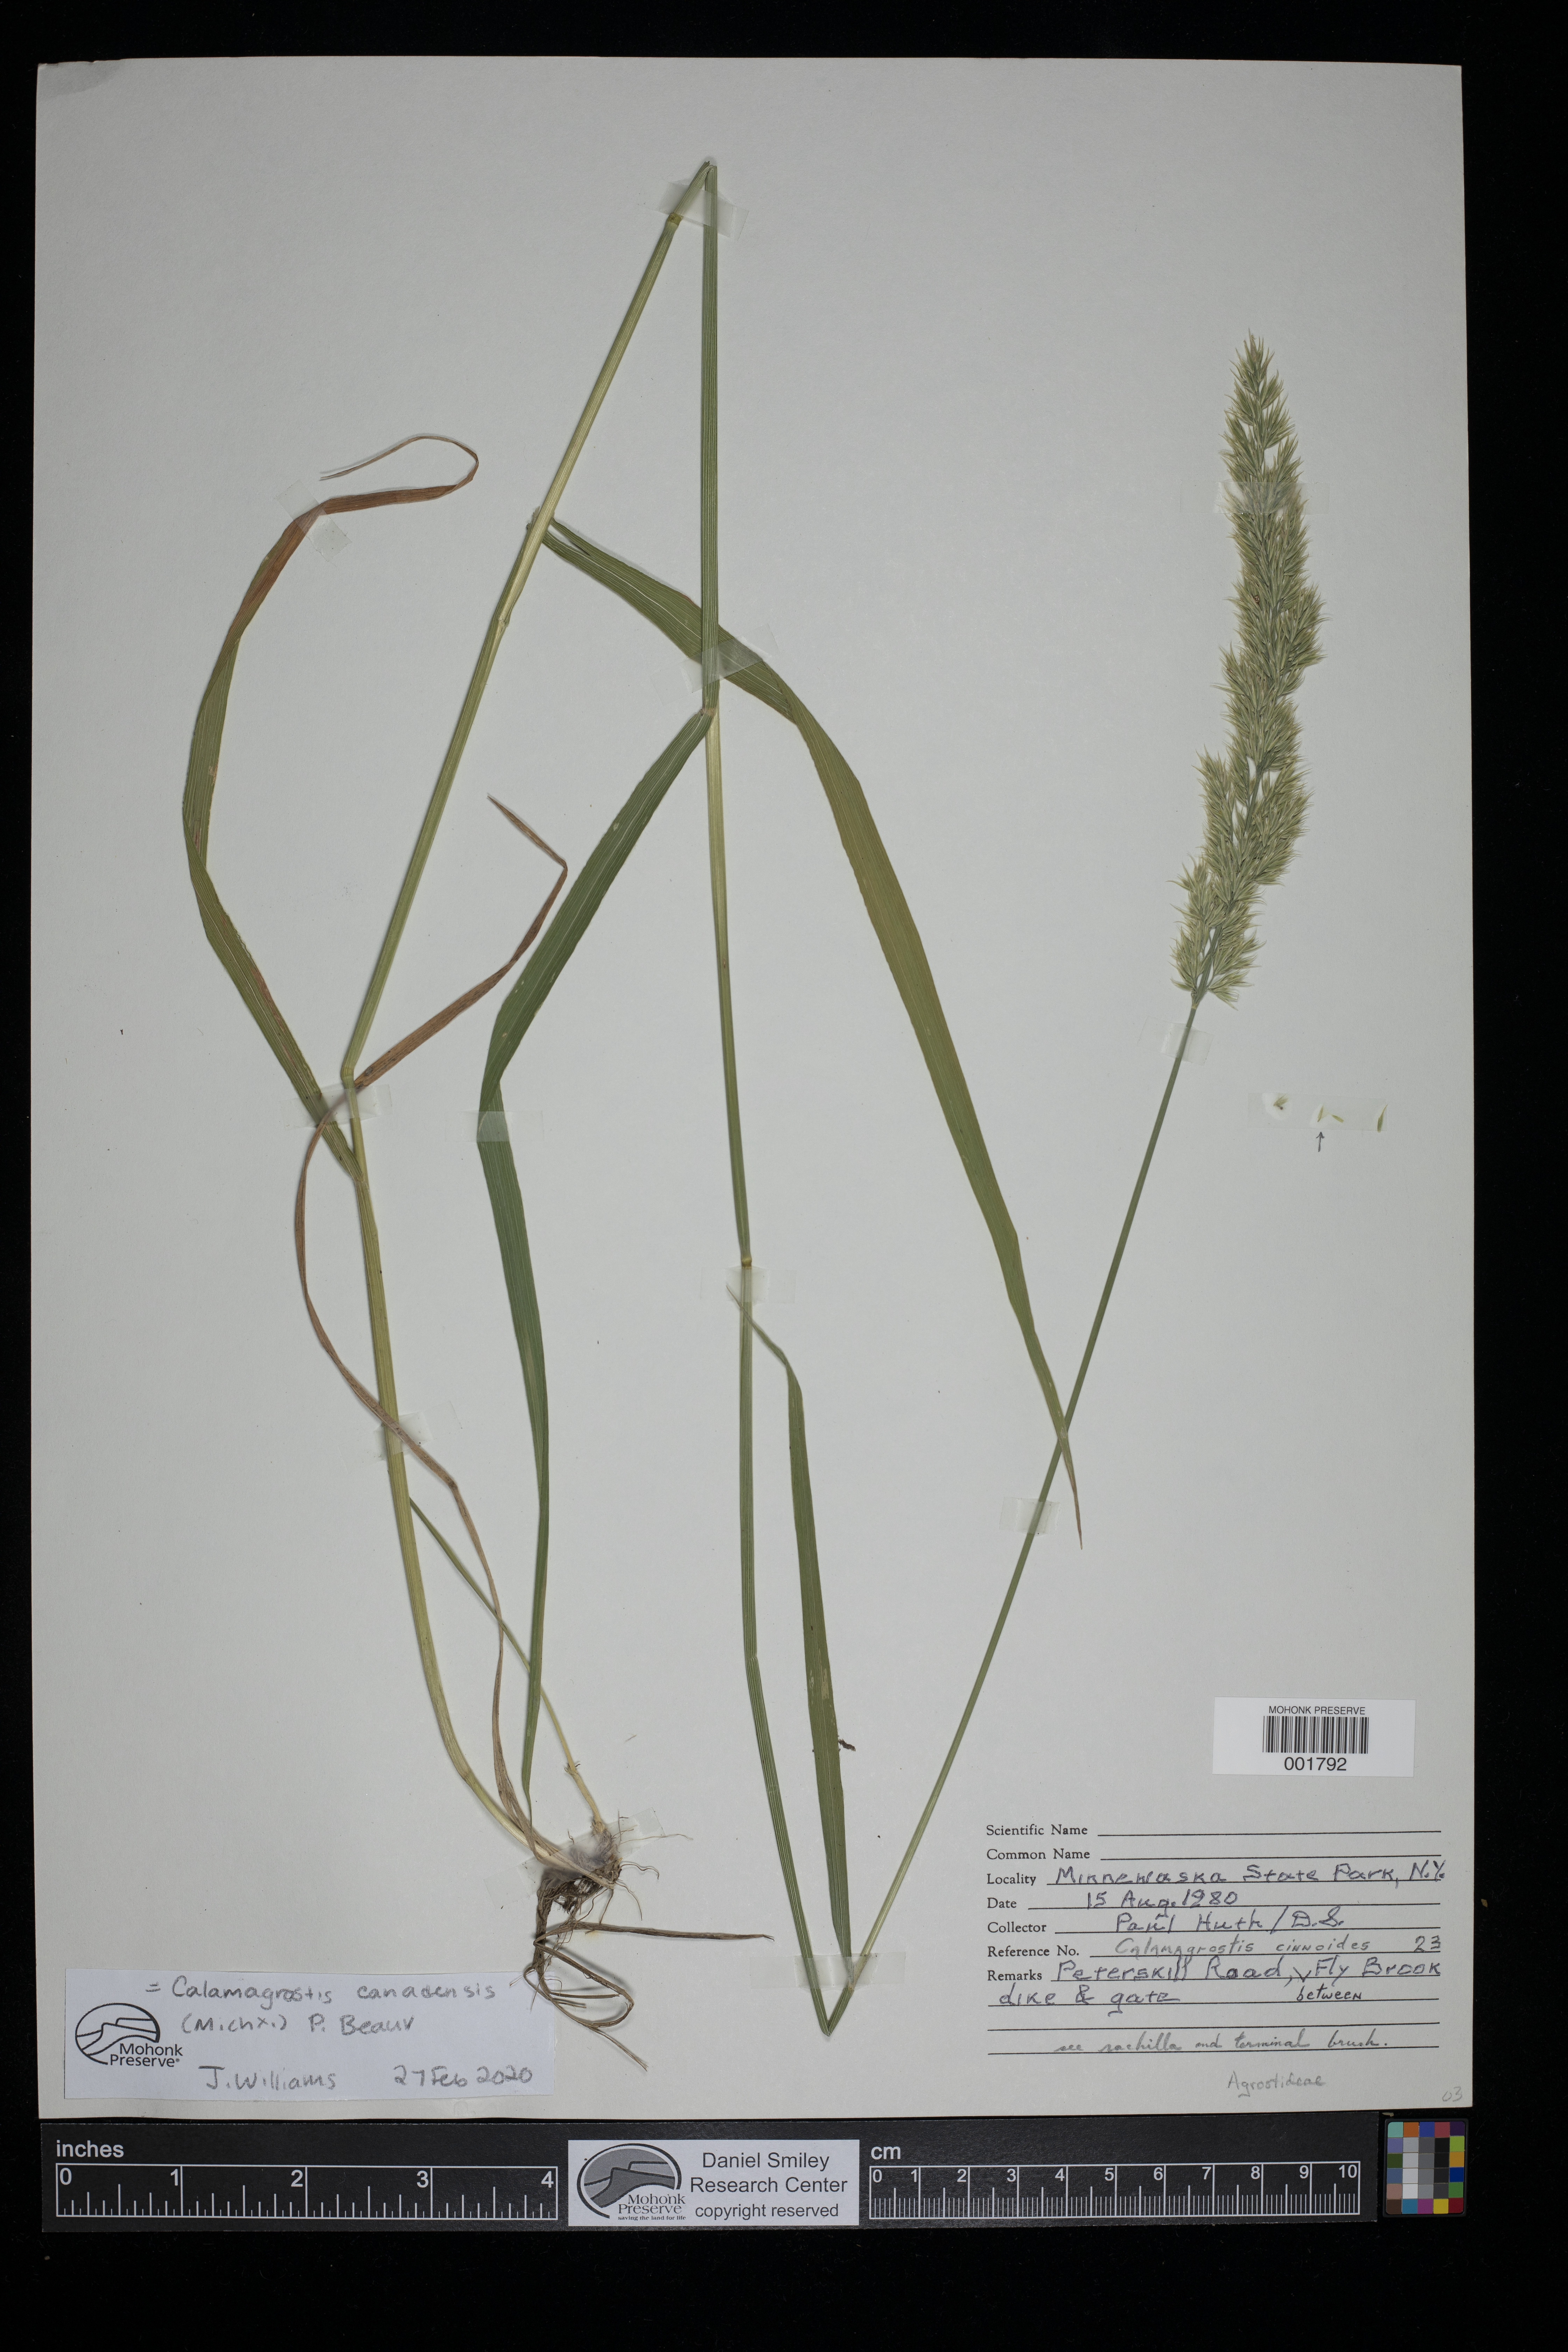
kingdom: Plantae
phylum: Tracheophyta
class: Liliopsida
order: Poales
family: Poaceae
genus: Calamagrostis
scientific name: Calamagrostis canadensis
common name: Canada bluejoint
